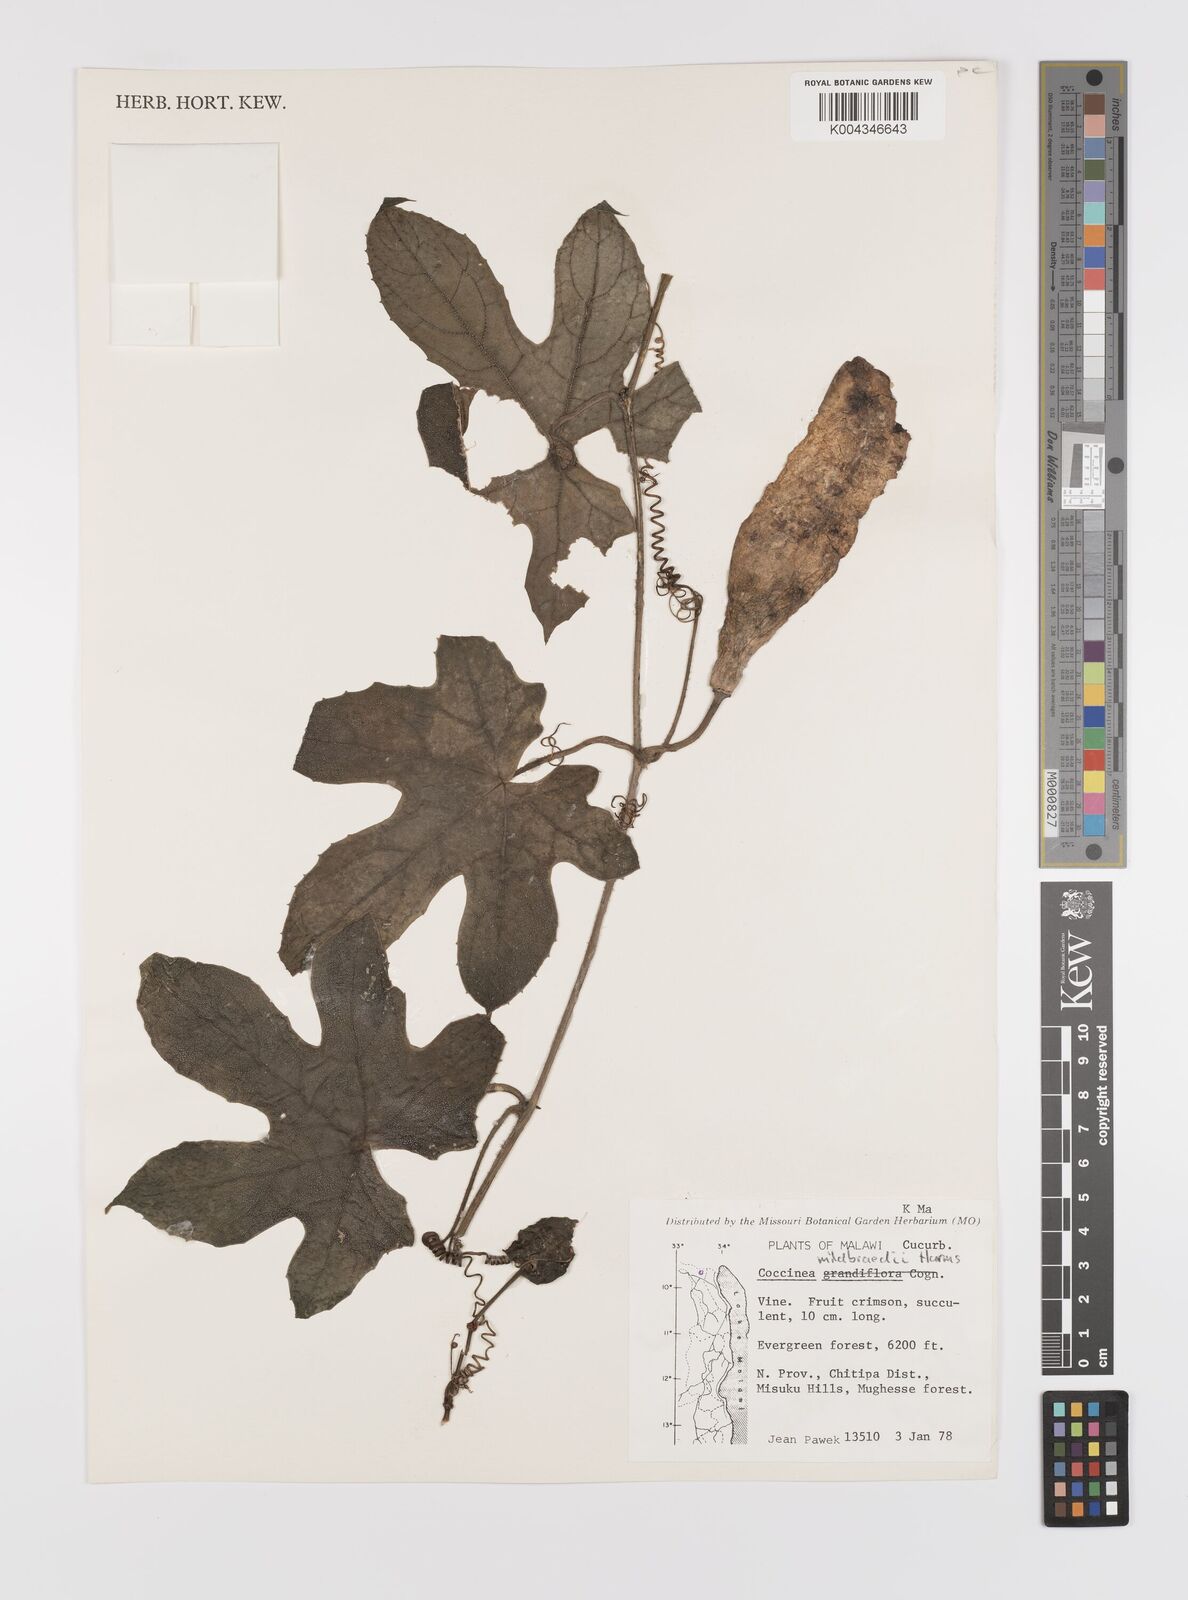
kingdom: Plantae
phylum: Tracheophyta
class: Magnoliopsida
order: Cucurbitales
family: Cucurbitaceae
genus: Coccinia
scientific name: Coccinia mildbraedii
